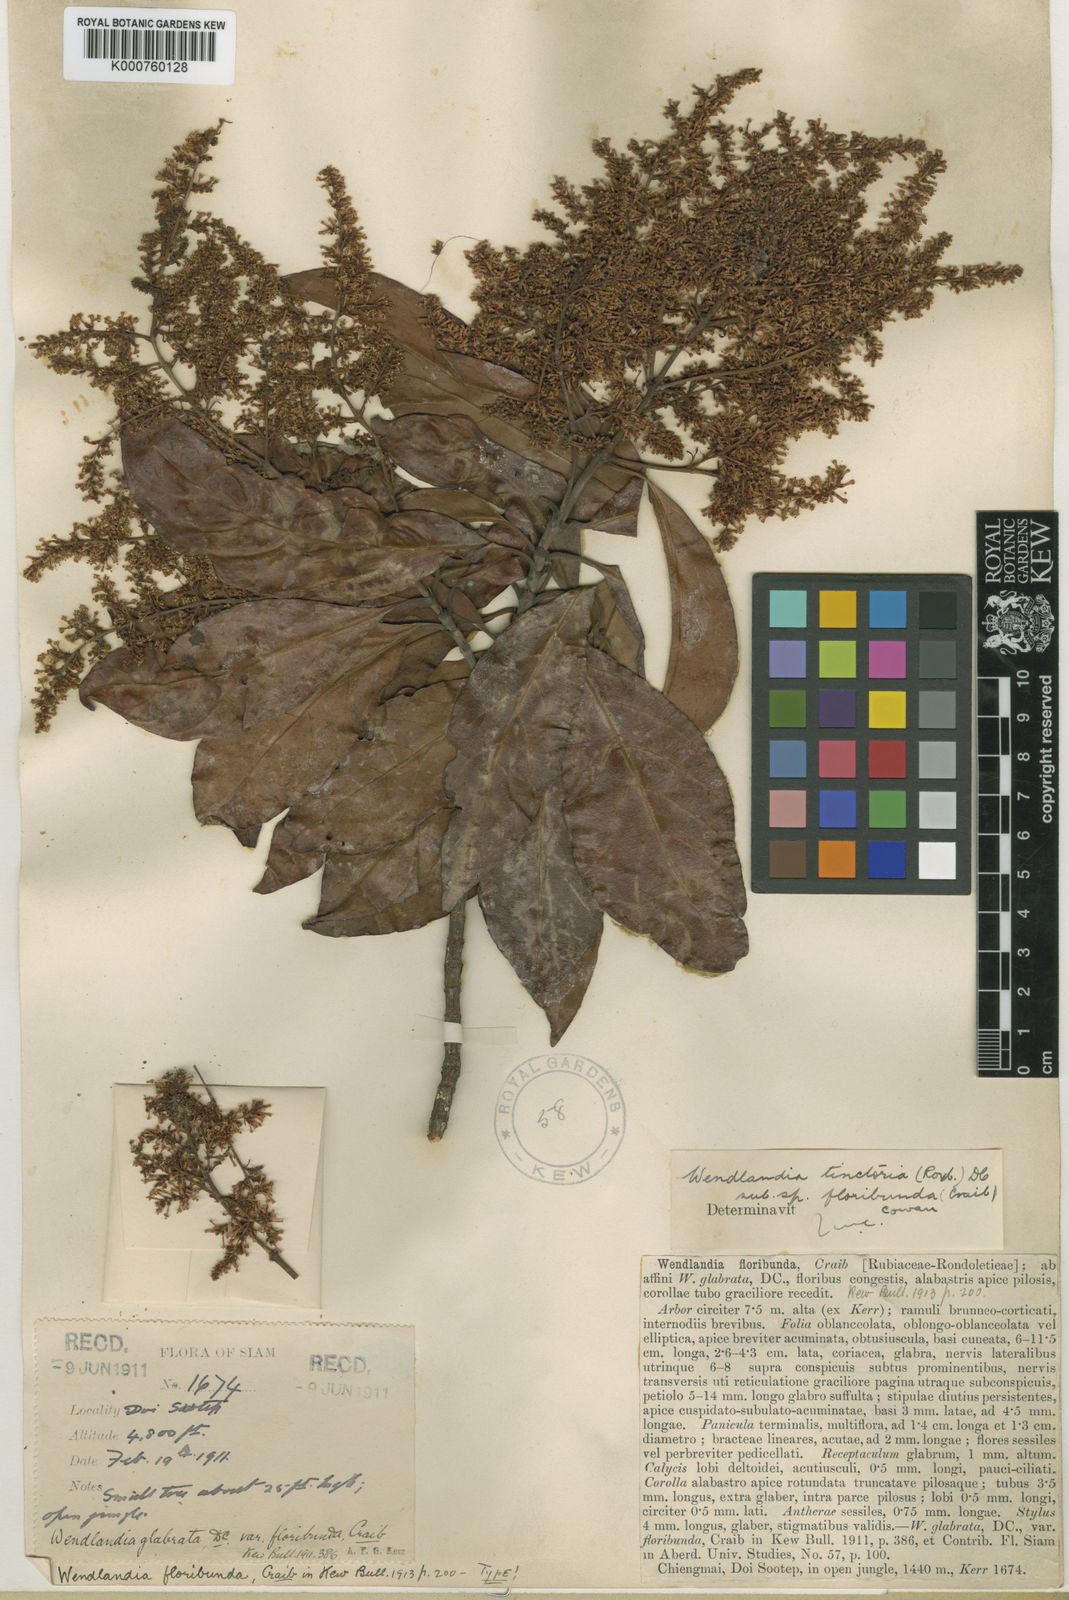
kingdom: Plantae
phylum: Tracheophyta
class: Magnoliopsida
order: Gentianales
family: Rubiaceae
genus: Wendlandia
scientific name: Wendlandia tinctoria
